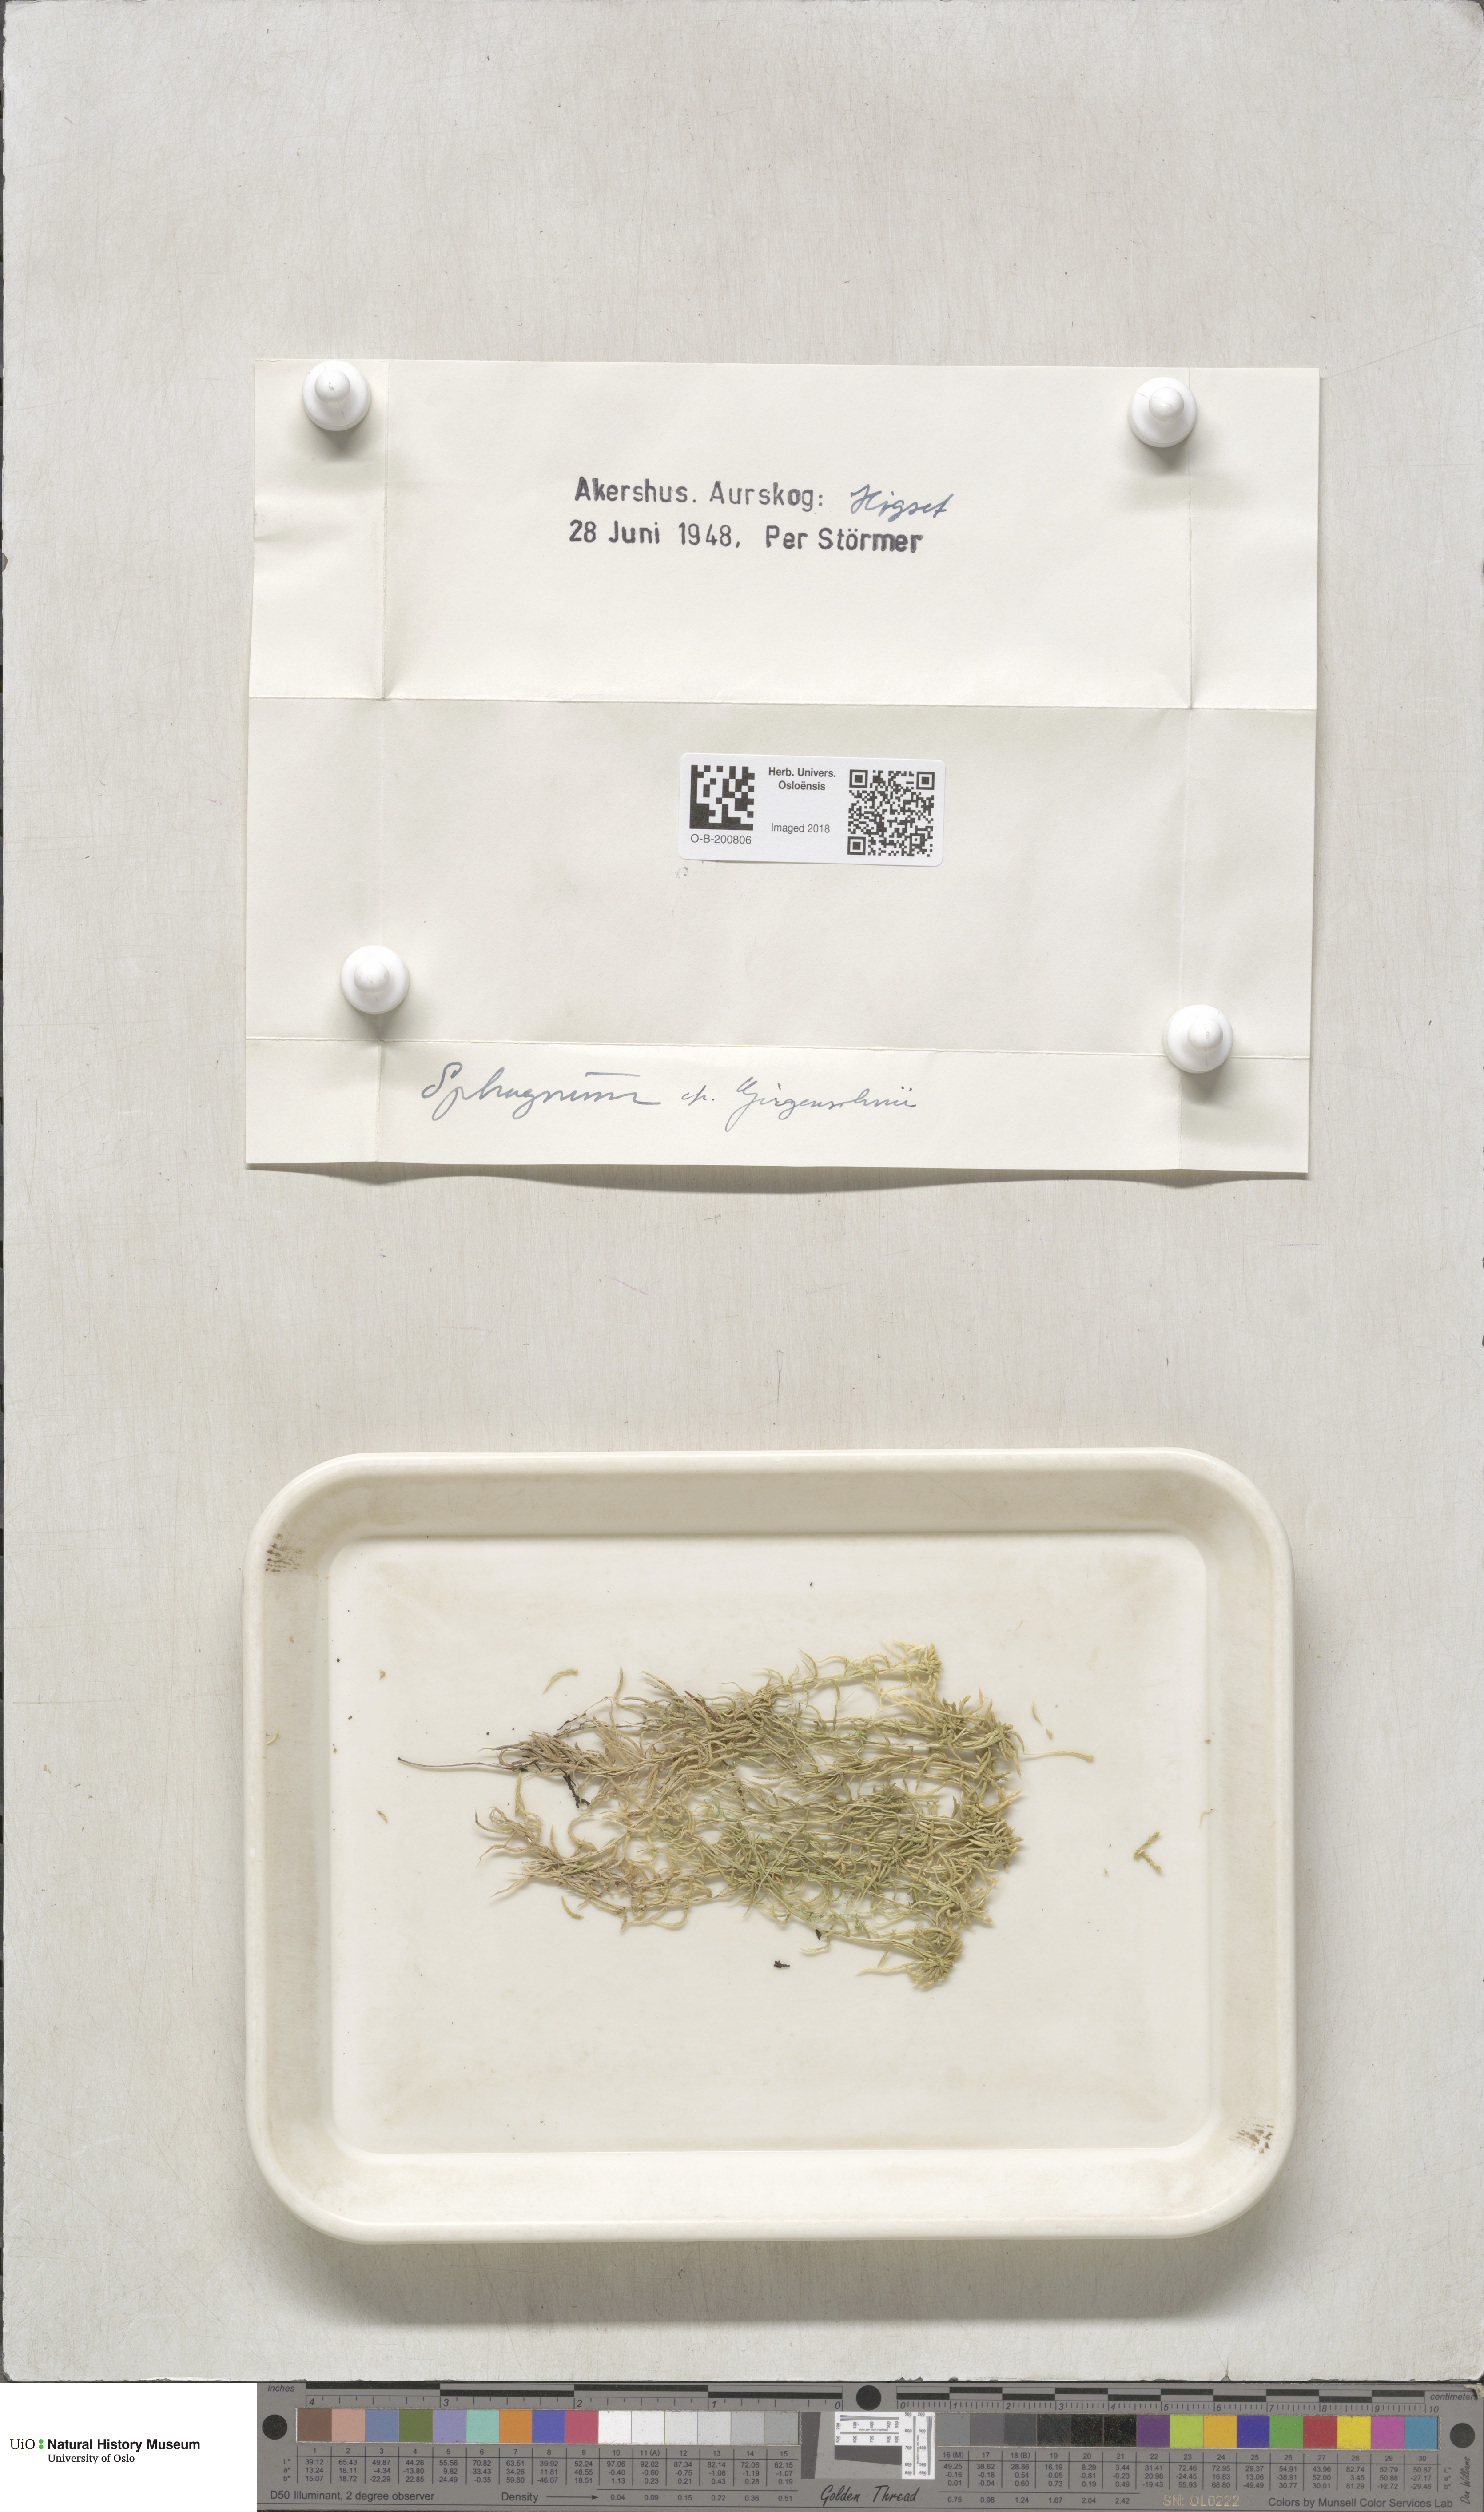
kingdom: Plantae
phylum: Bryophyta
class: Sphagnopsida
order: Sphagnales
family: Sphagnaceae
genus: Sphagnum
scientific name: Sphagnum girgensohnii
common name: Girgensohn's peat moss
